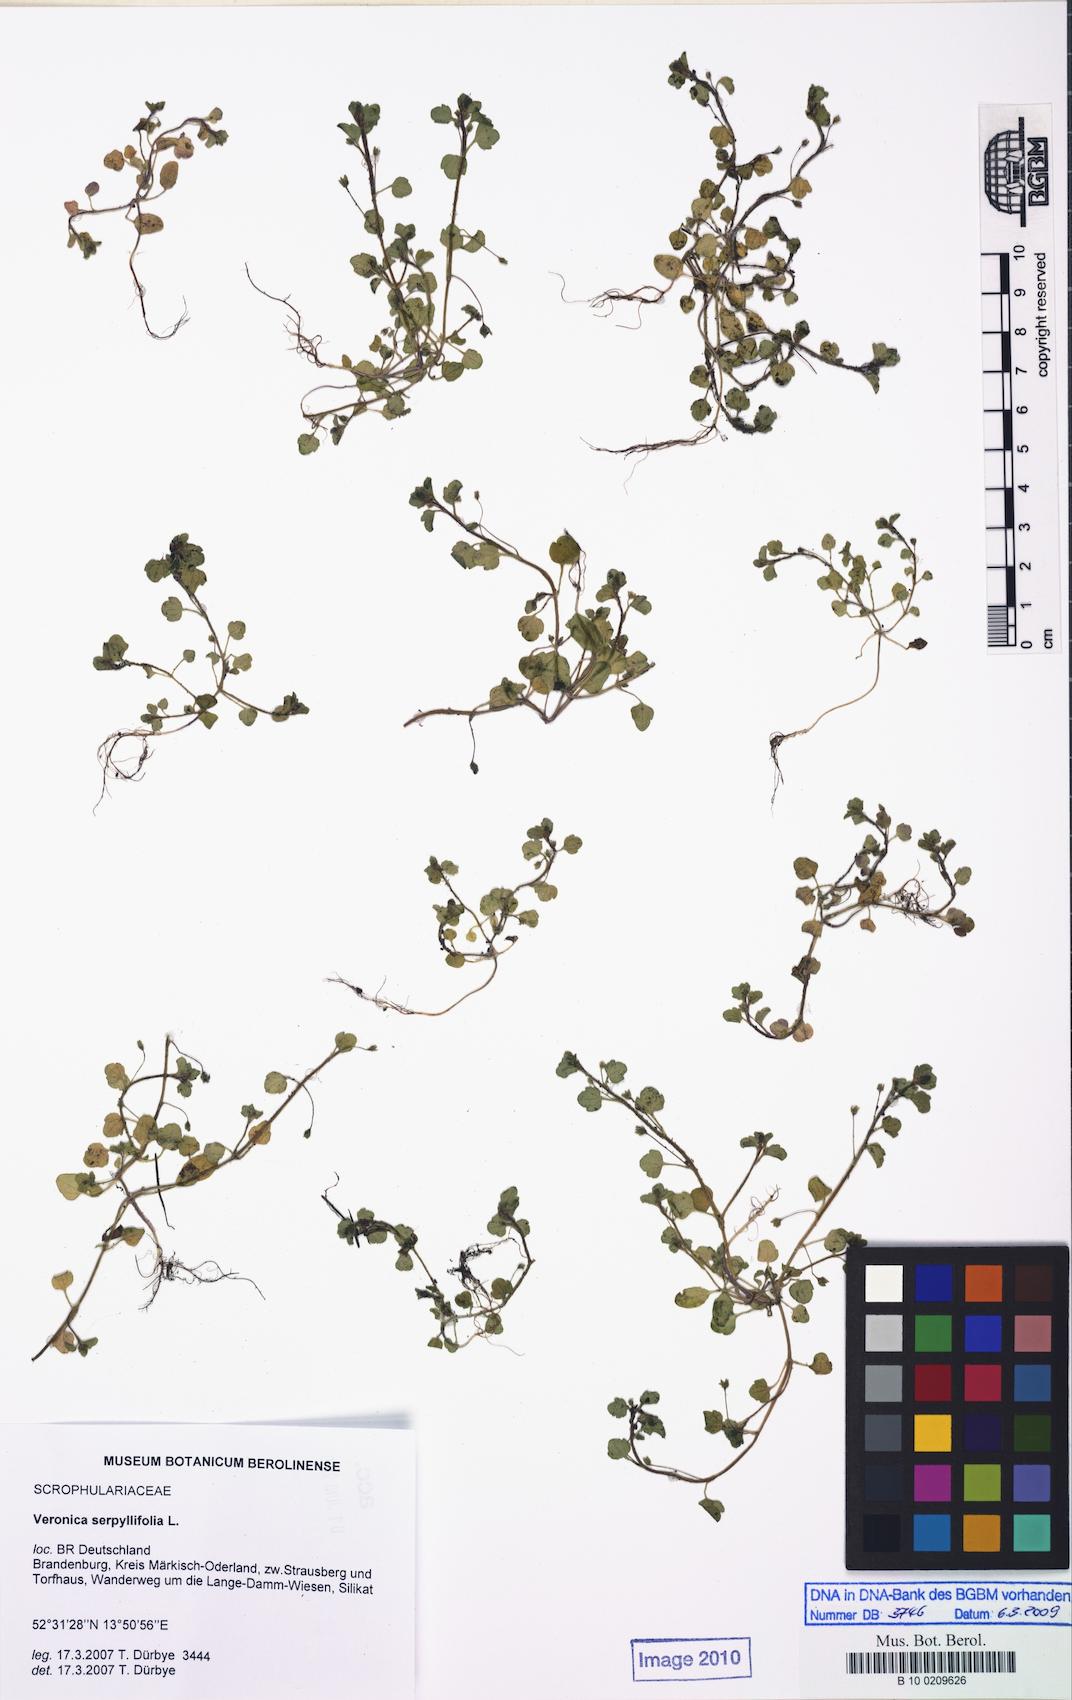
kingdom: Plantae
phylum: Tracheophyta
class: Magnoliopsida
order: Lamiales
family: Plantaginaceae
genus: Veronica
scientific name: Veronica sublobata
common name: False ivy-leaved speedwell
